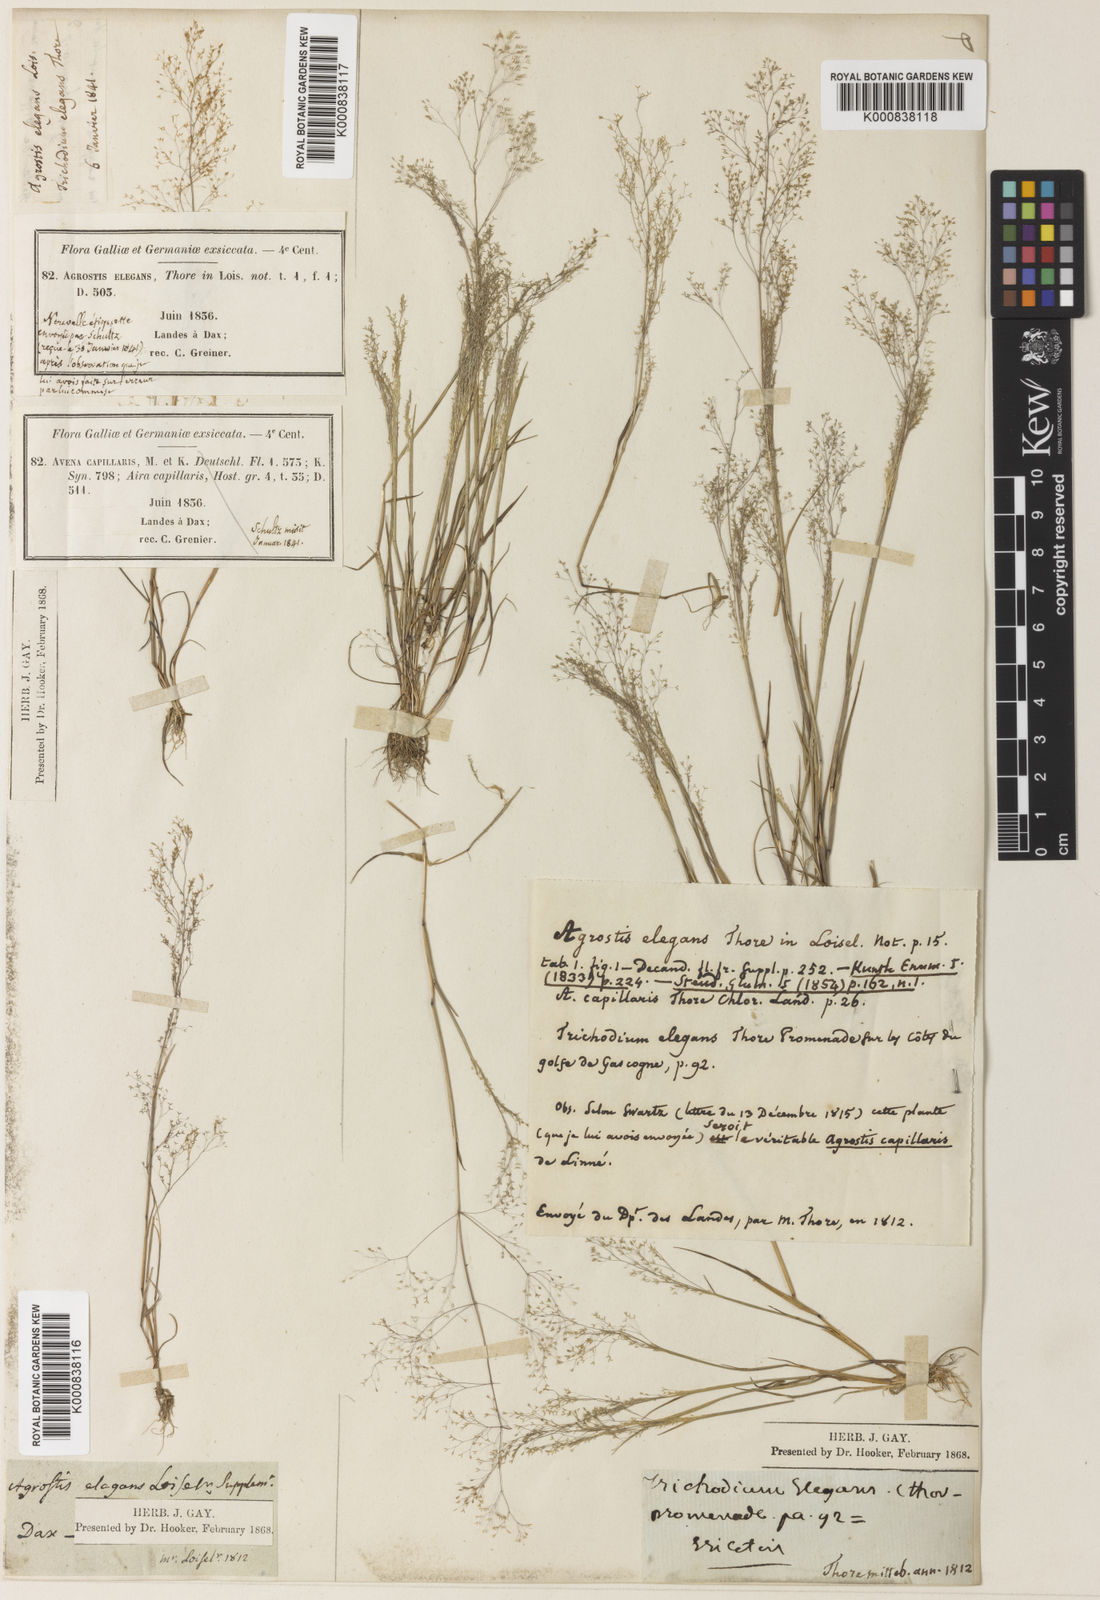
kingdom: Plantae
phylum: Tracheophyta
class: Liliopsida
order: Poales
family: Poaceae
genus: Agrostis
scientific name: Agrostis tenerrima
